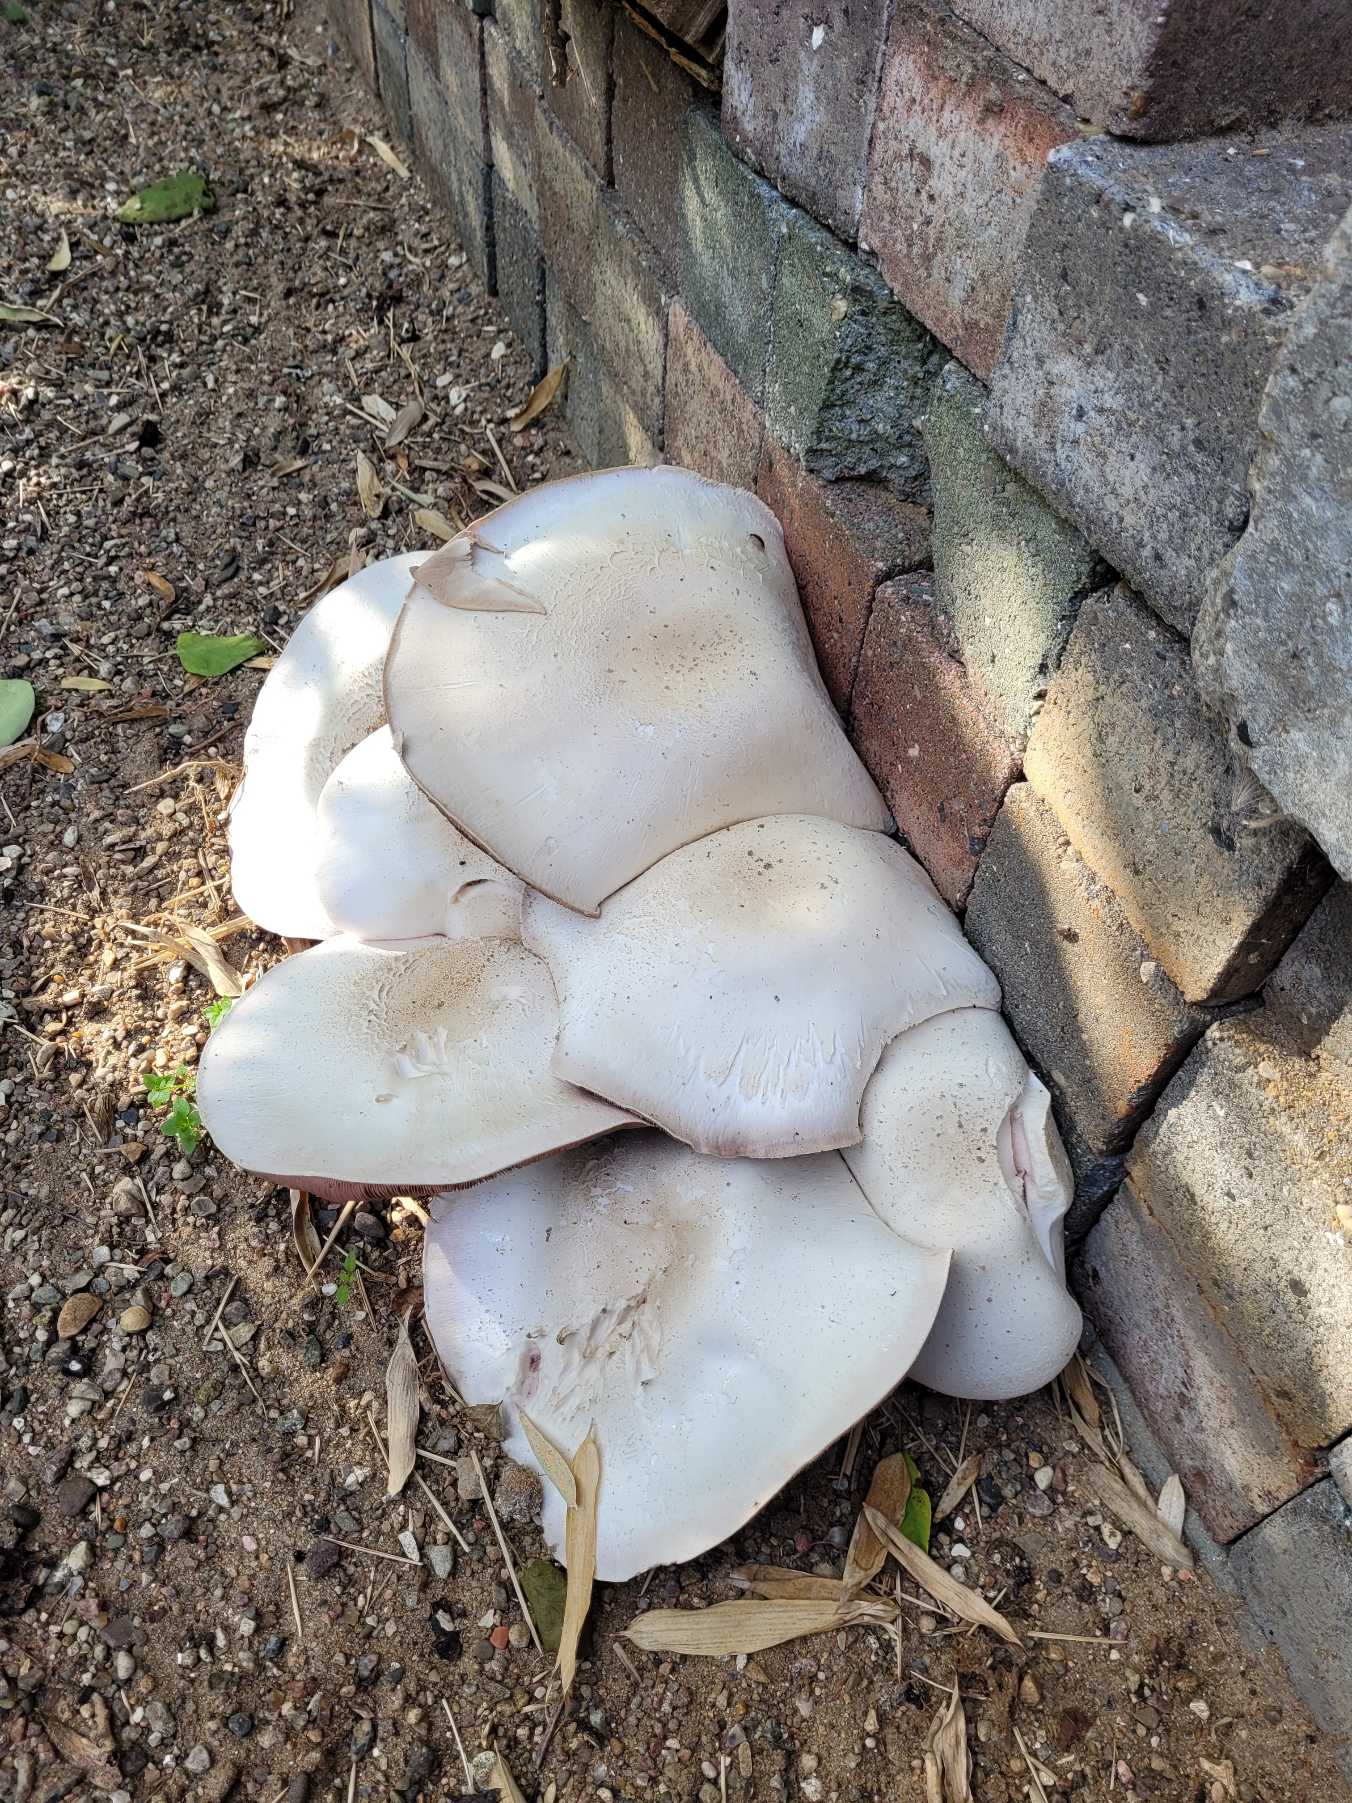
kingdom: Animalia
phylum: Arthropoda
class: Insecta
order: Lepidoptera
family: Erebidae
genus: Calliteara
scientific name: Calliteara pudibunda
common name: Bøgenonne
